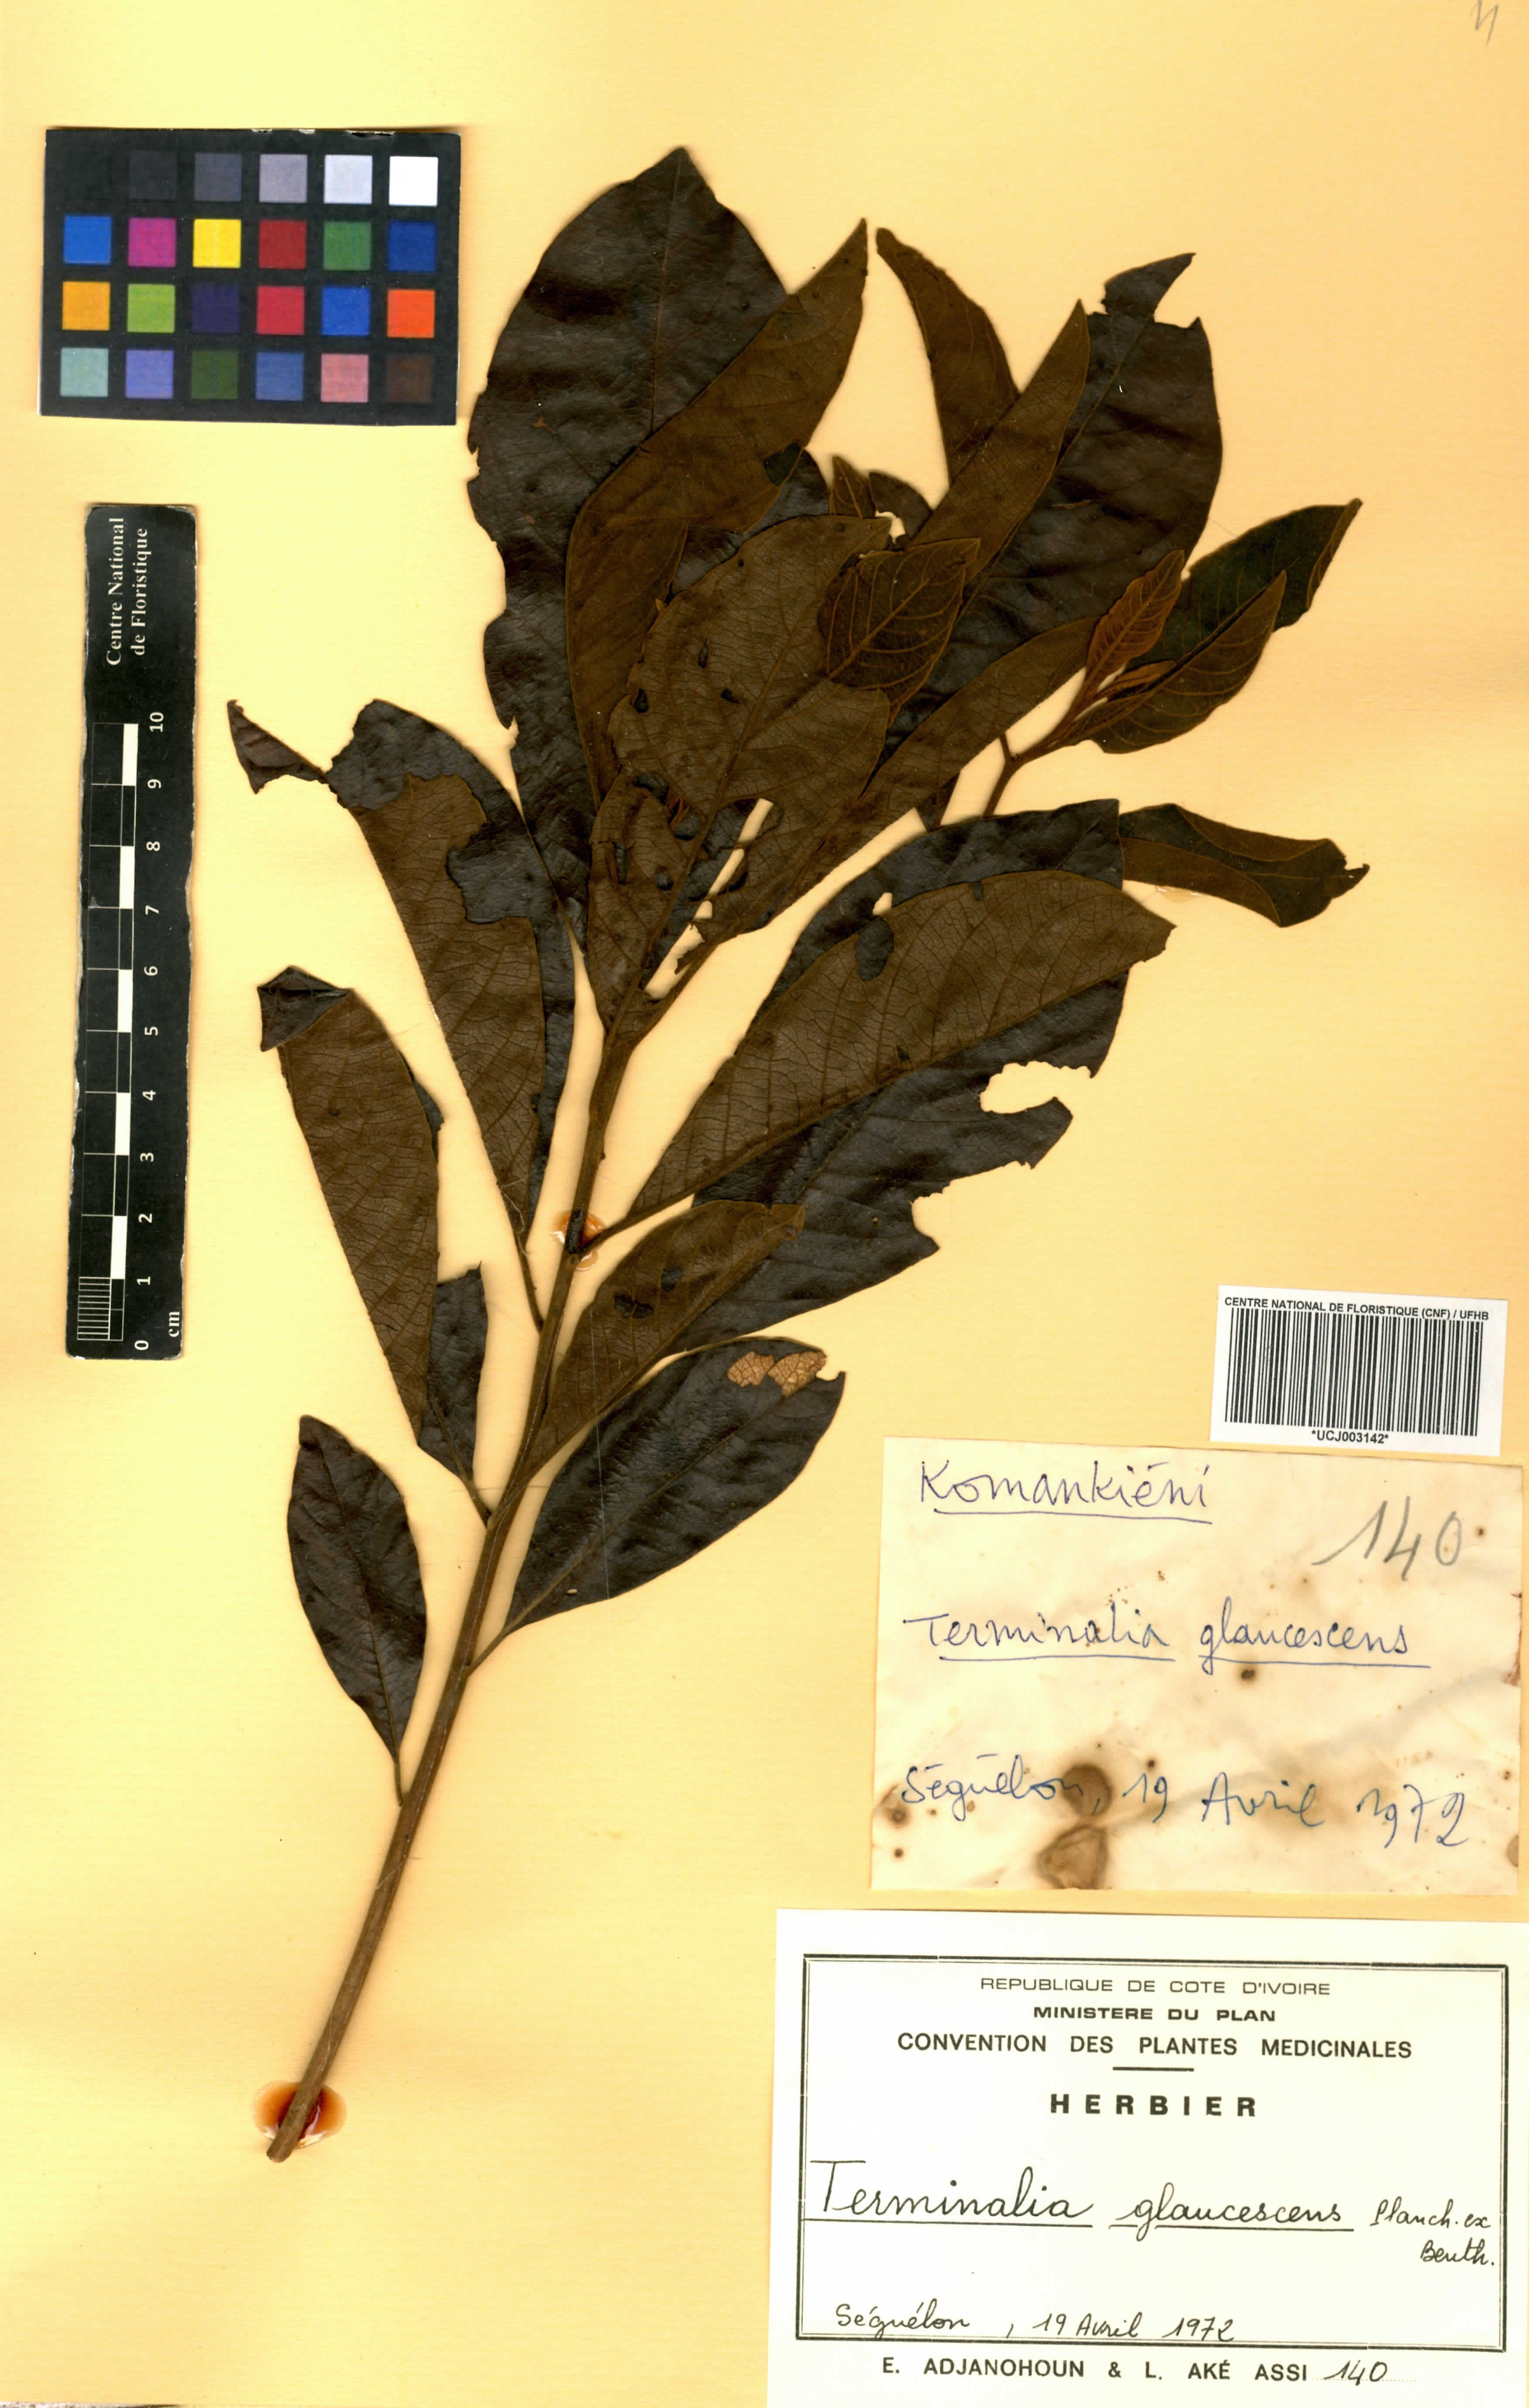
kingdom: Plantae
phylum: Tracheophyta
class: Magnoliopsida
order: Myrtales
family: Combretaceae
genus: Terminalia
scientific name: Terminalia schimperiana
